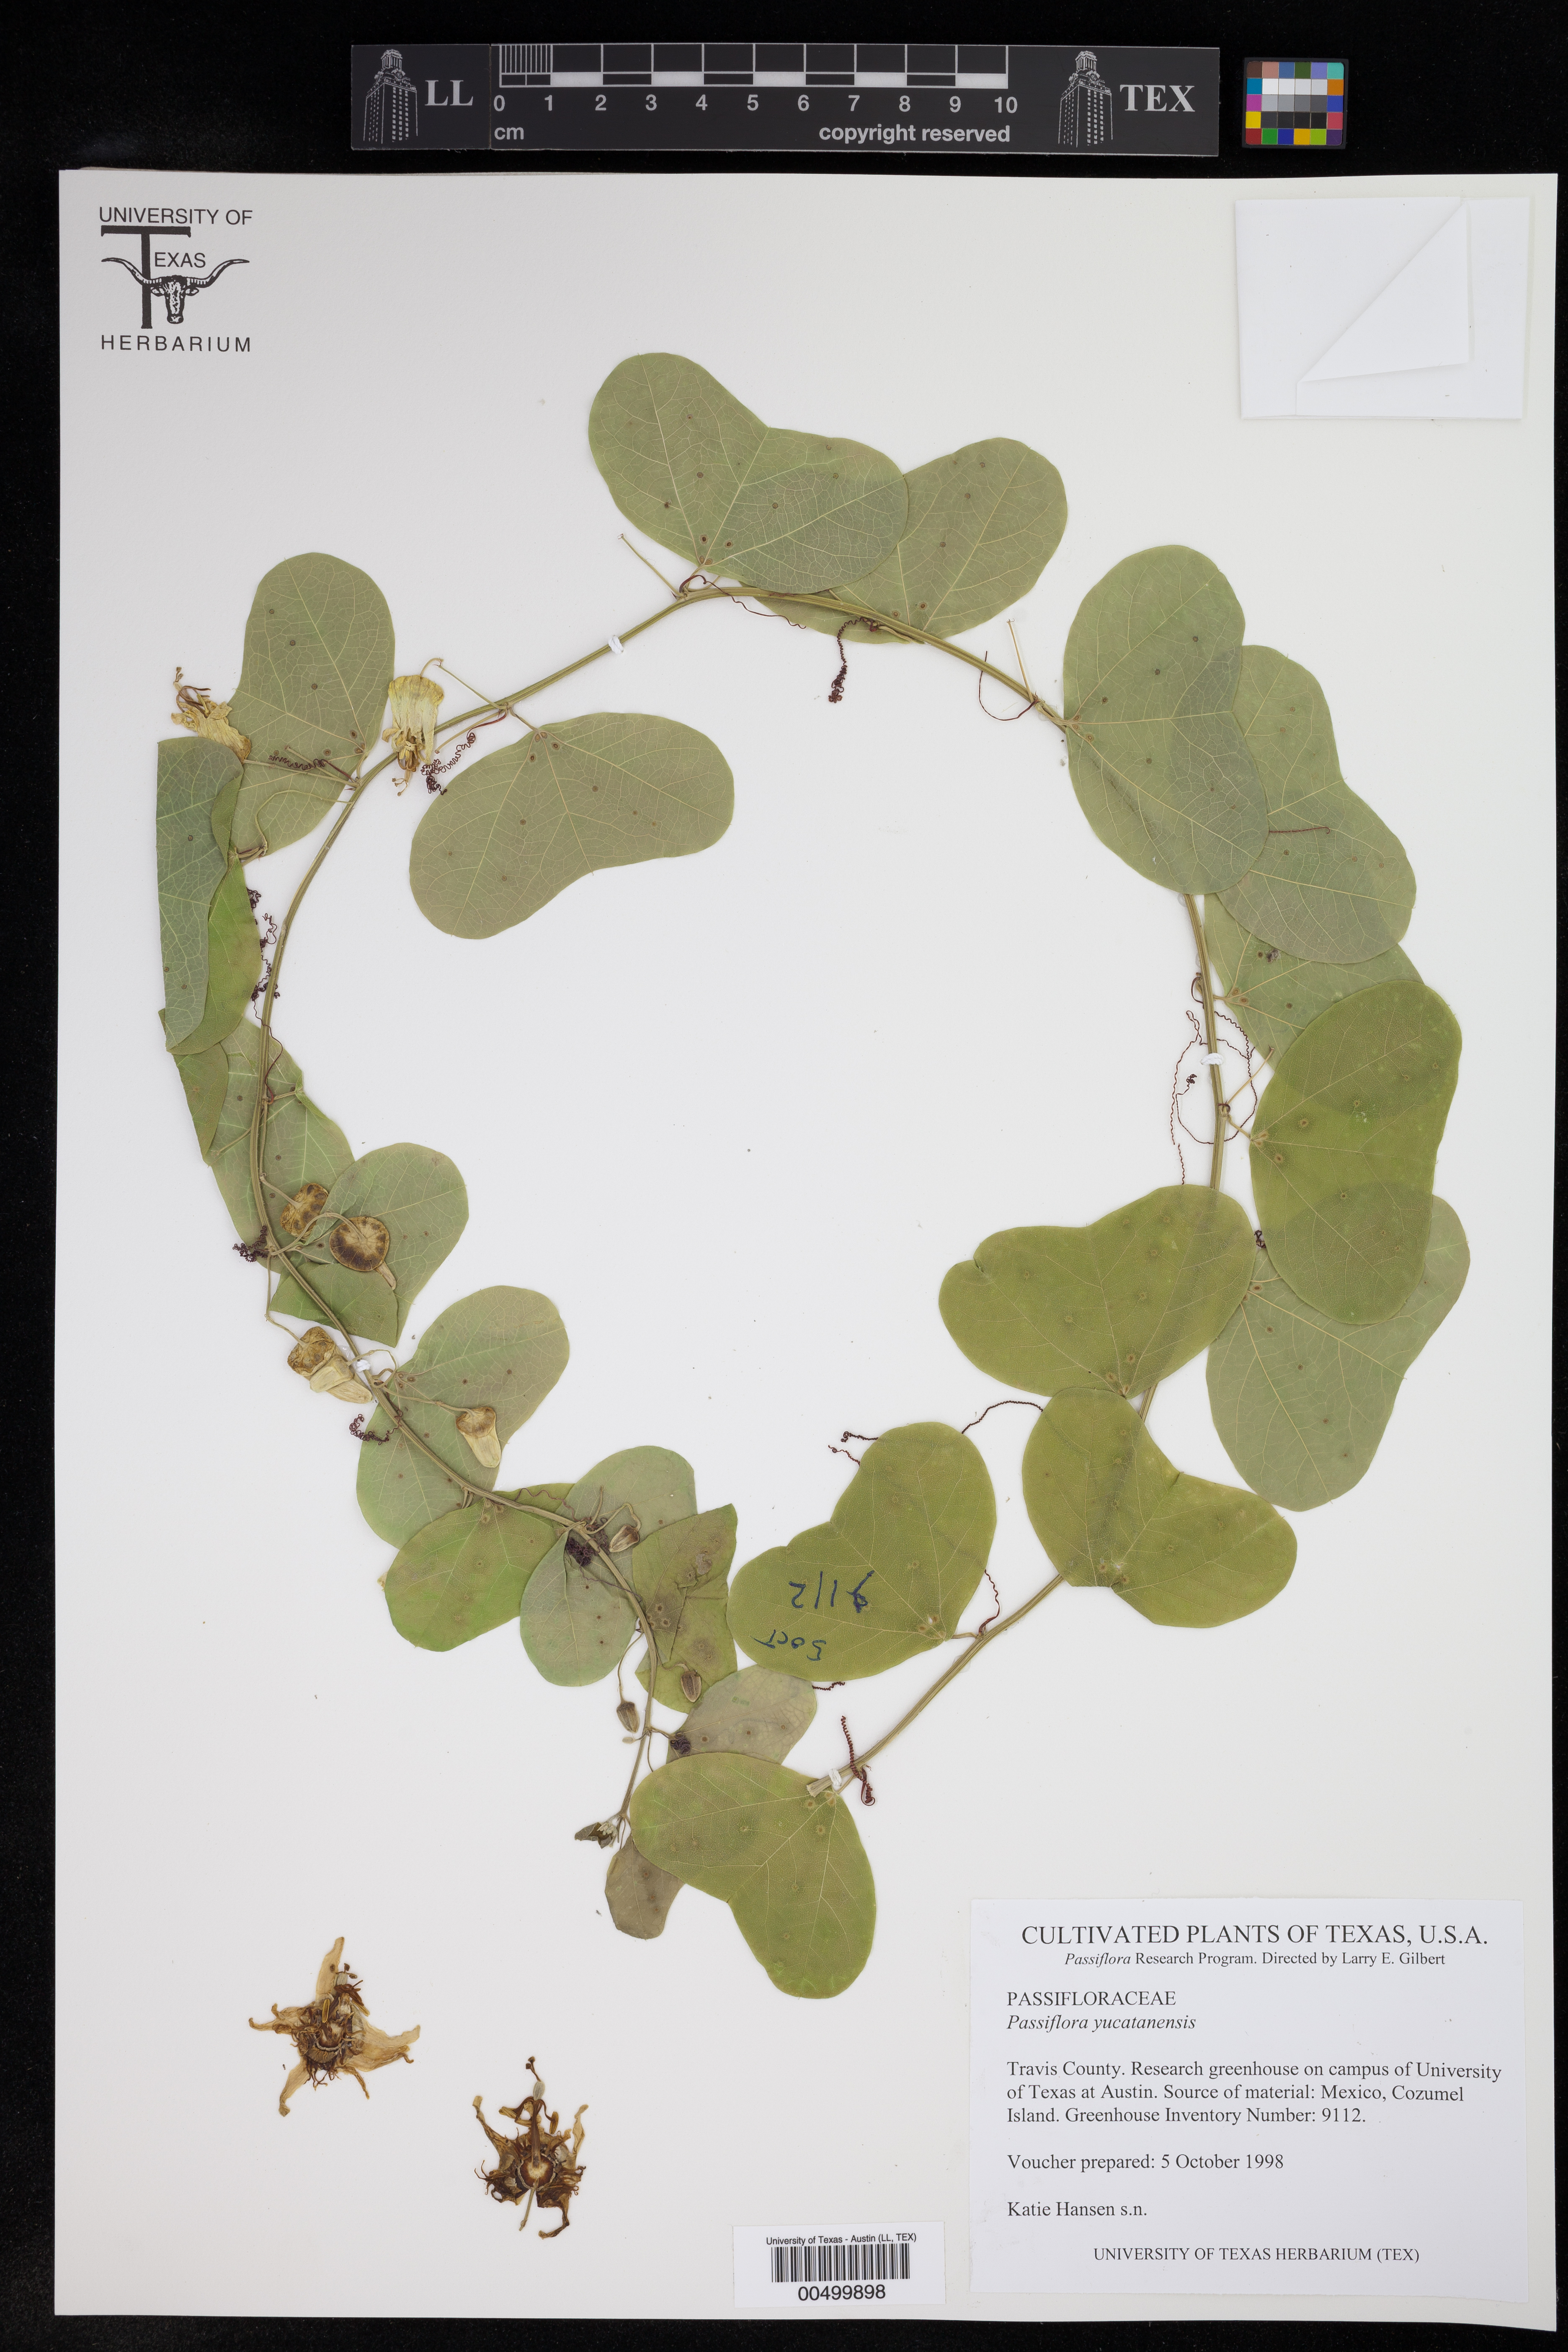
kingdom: Plantae
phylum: Tracheophyta
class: Magnoliopsida
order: Malpighiales
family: Passifloraceae
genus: Passiflora
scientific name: Passiflora yucatanensis
